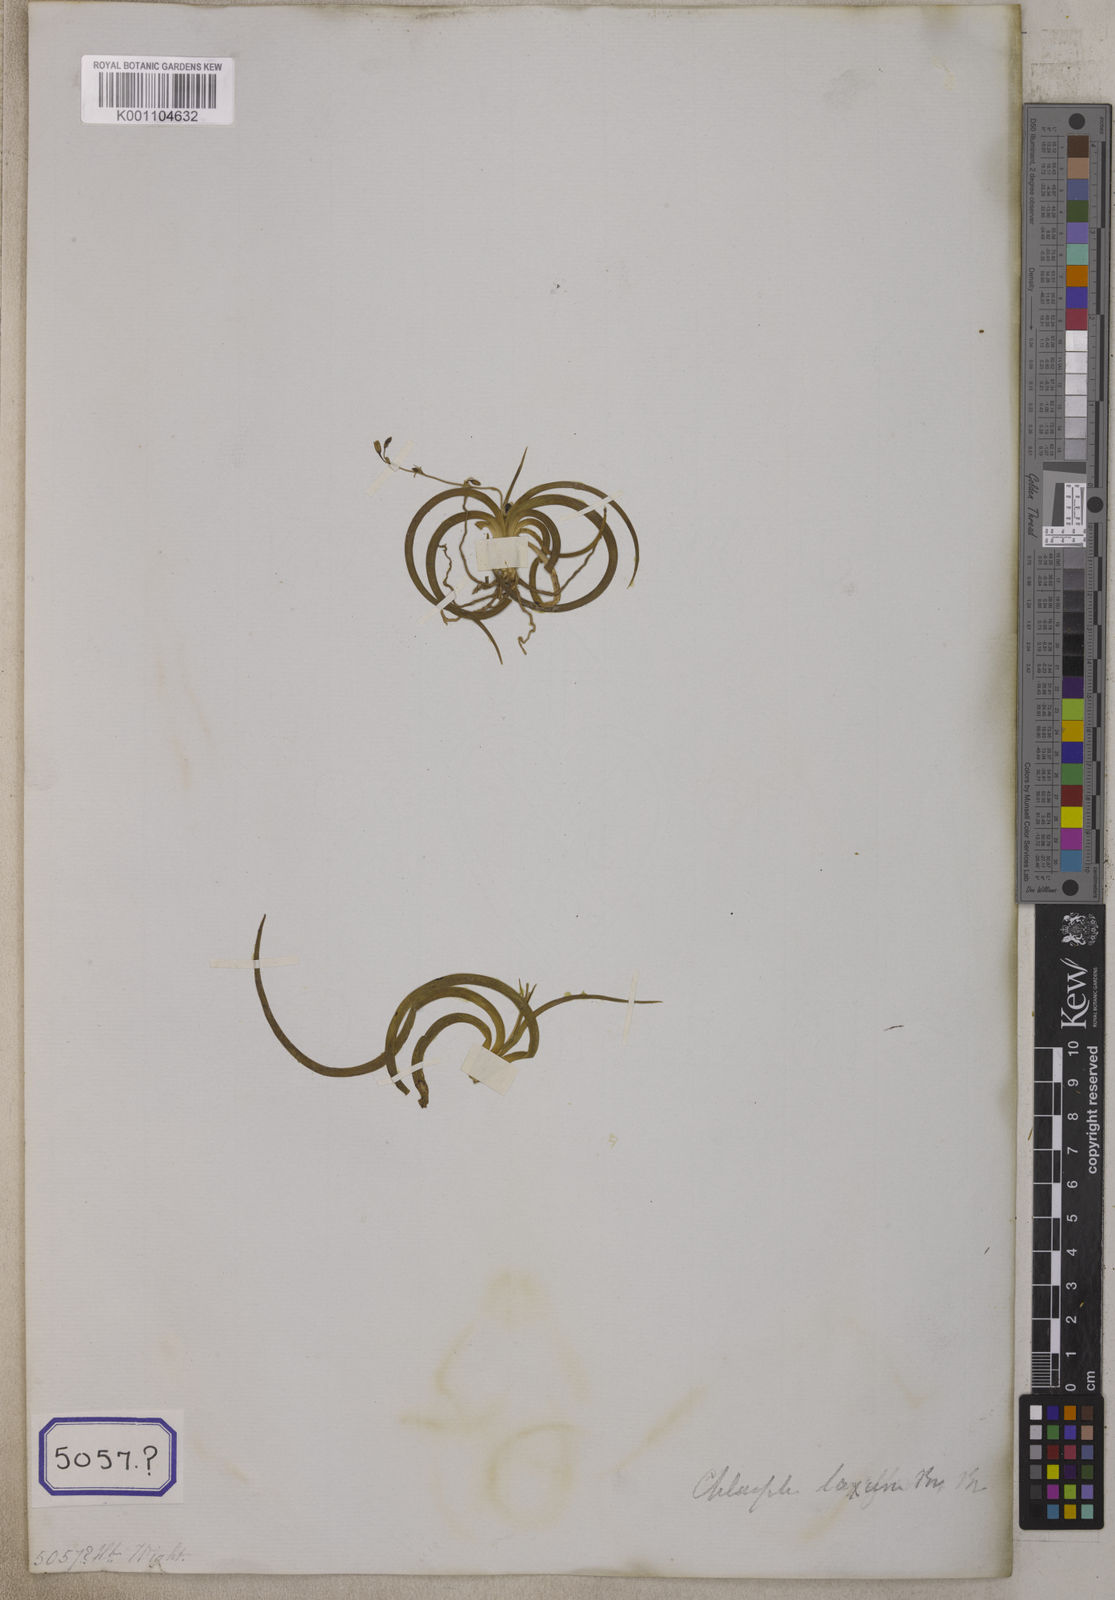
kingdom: Plantae
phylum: Tracheophyta
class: Liliopsida
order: Asparagales
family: Iridaceae
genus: Phalangium
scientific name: Phalangium
